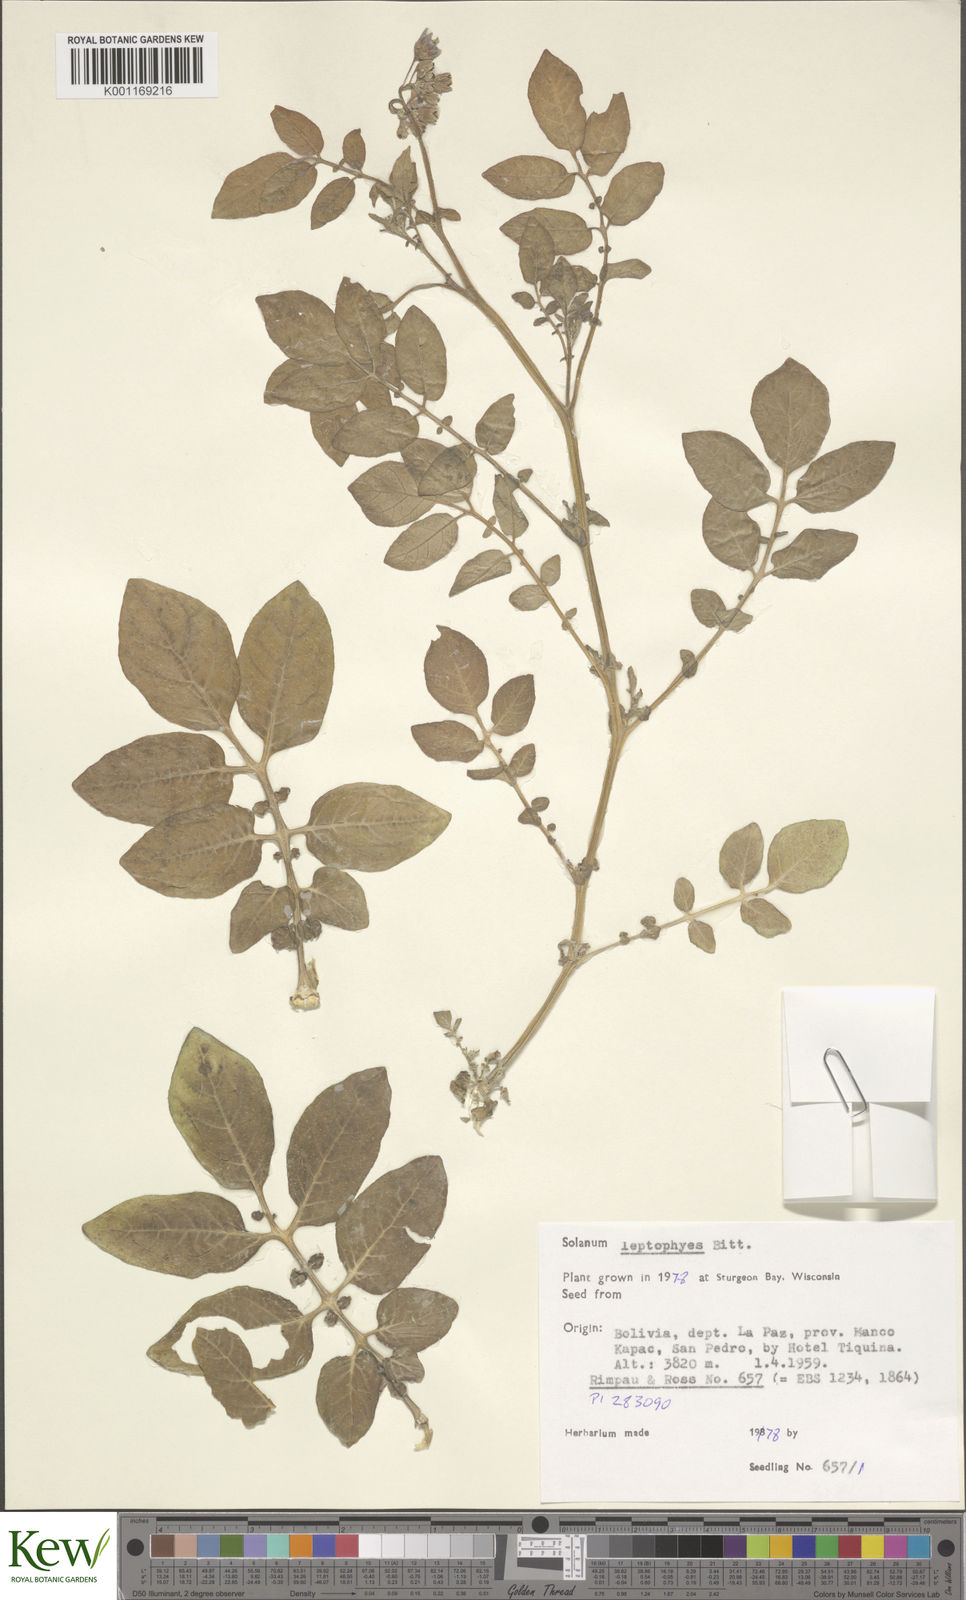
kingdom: Plantae
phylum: Tracheophyta
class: Magnoliopsida
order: Solanales
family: Solanaceae
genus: Solanum
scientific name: Solanum brevicaule
